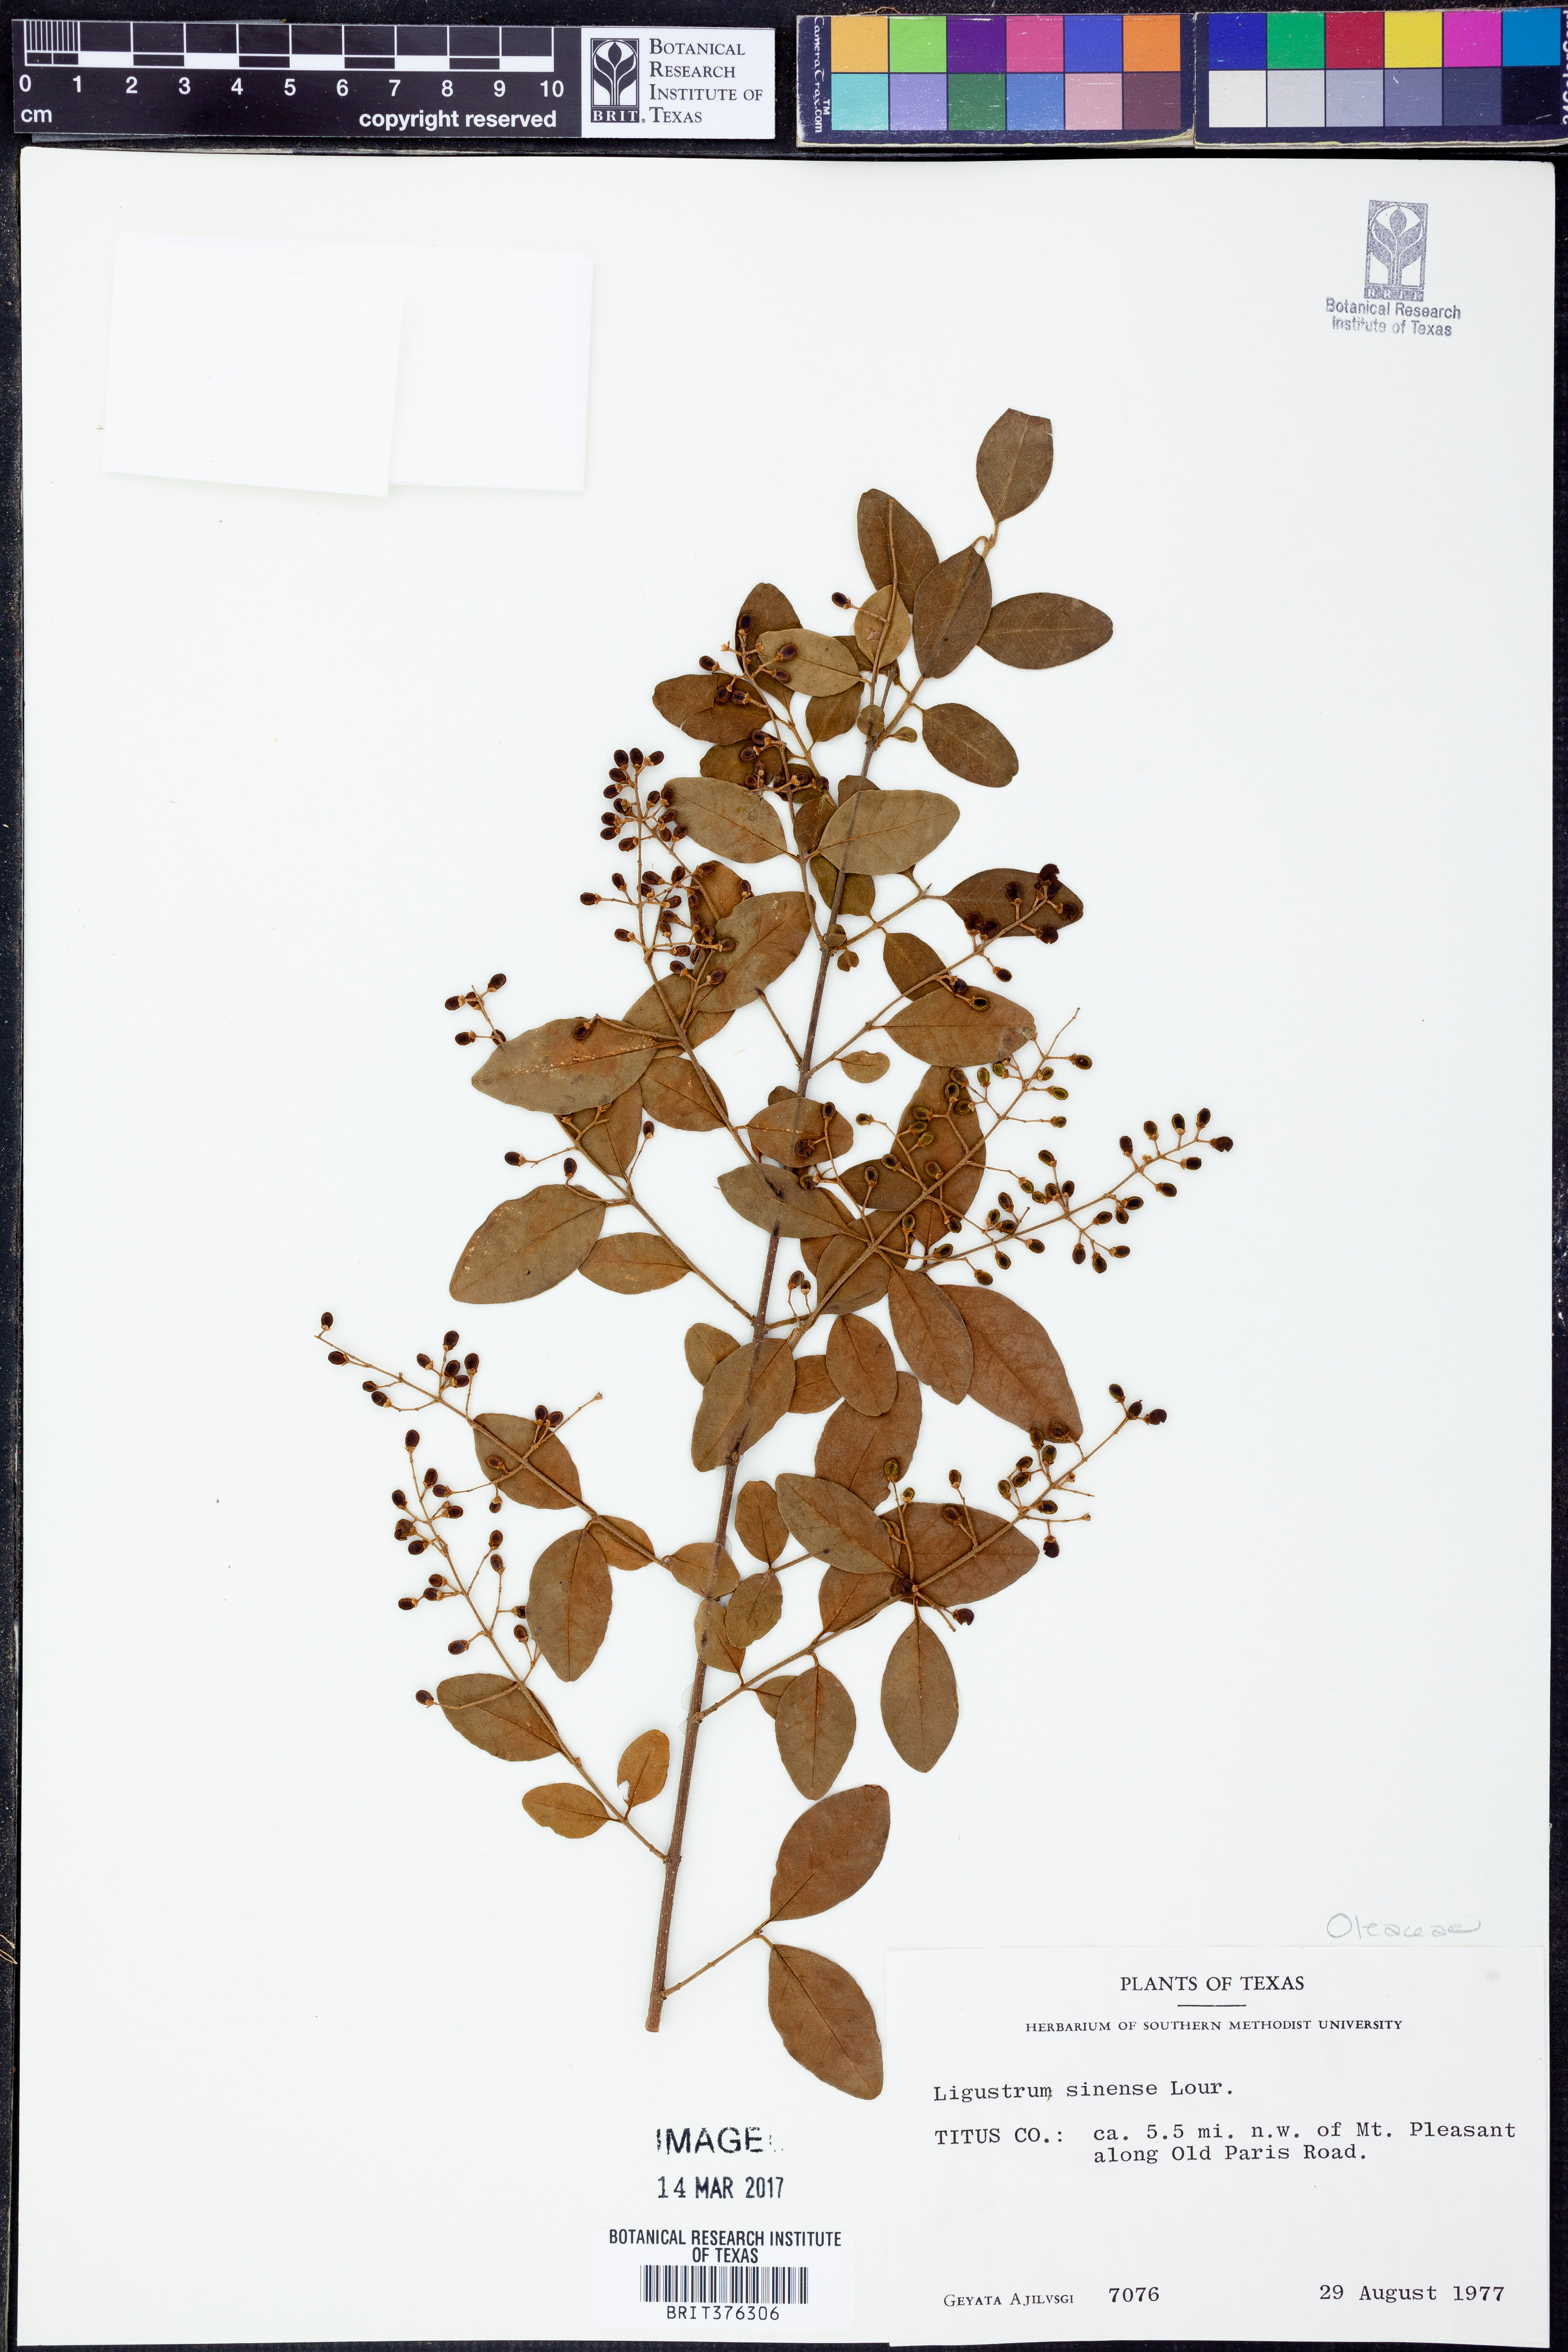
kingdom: Plantae
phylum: Tracheophyta
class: Magnoliopsida
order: Lamiales
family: Oleaceae
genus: Ligustrum
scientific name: Ligustrum sinense
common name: Chinese privet
